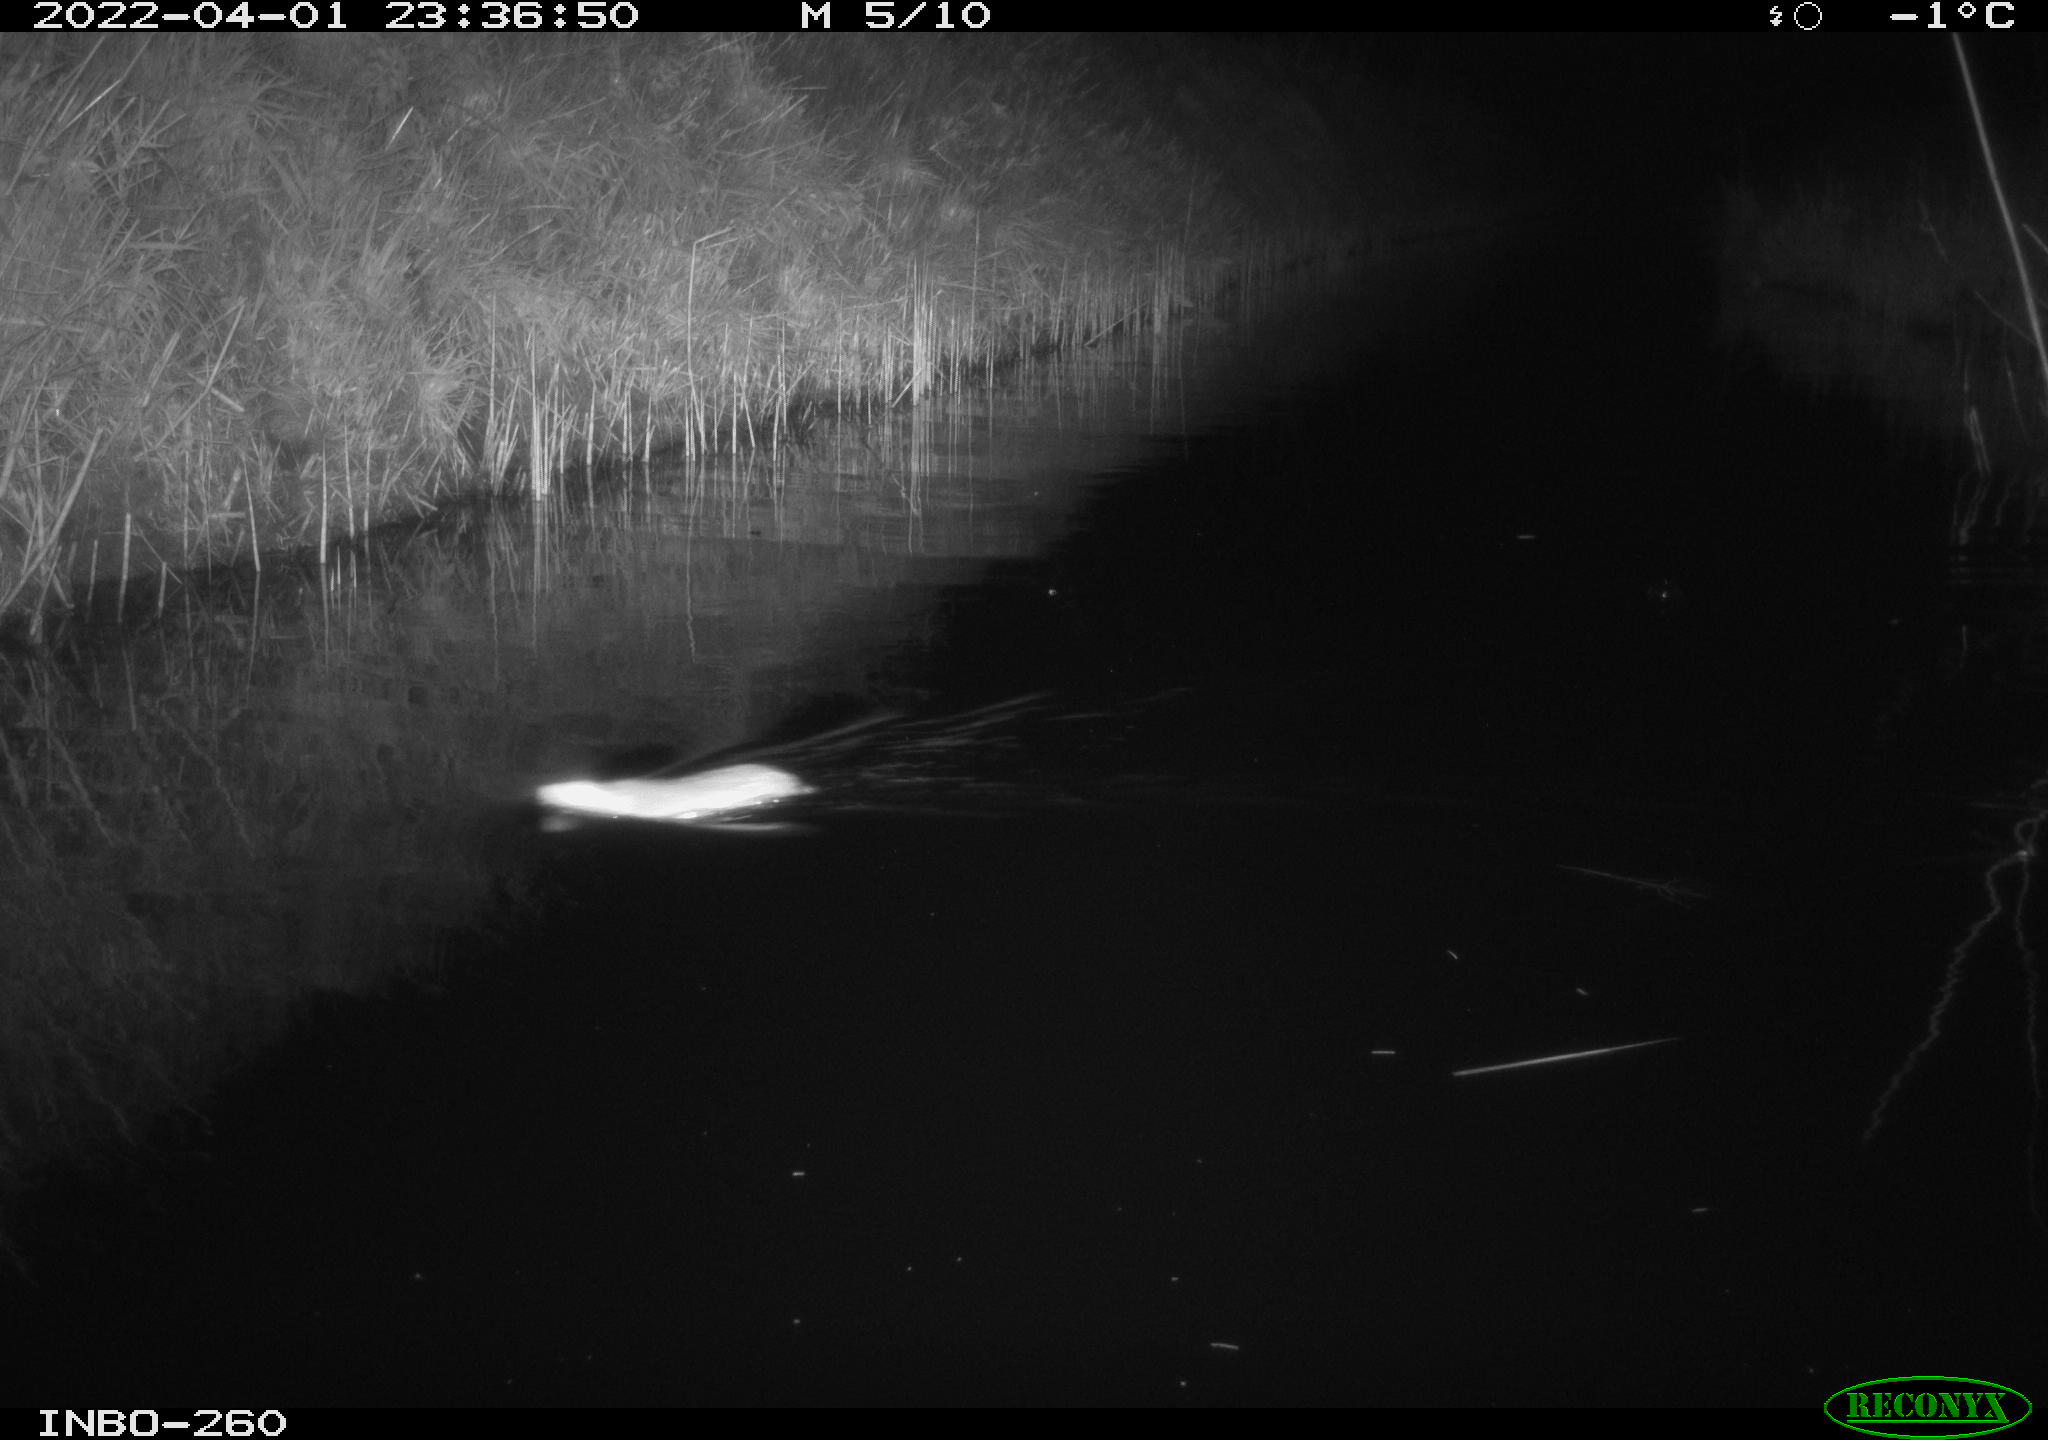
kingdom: Animalia
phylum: Chordata
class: Mammalia
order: Rodentia
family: Muridae
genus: Rattus
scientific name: Rattus norvegicus
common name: Brown rat
